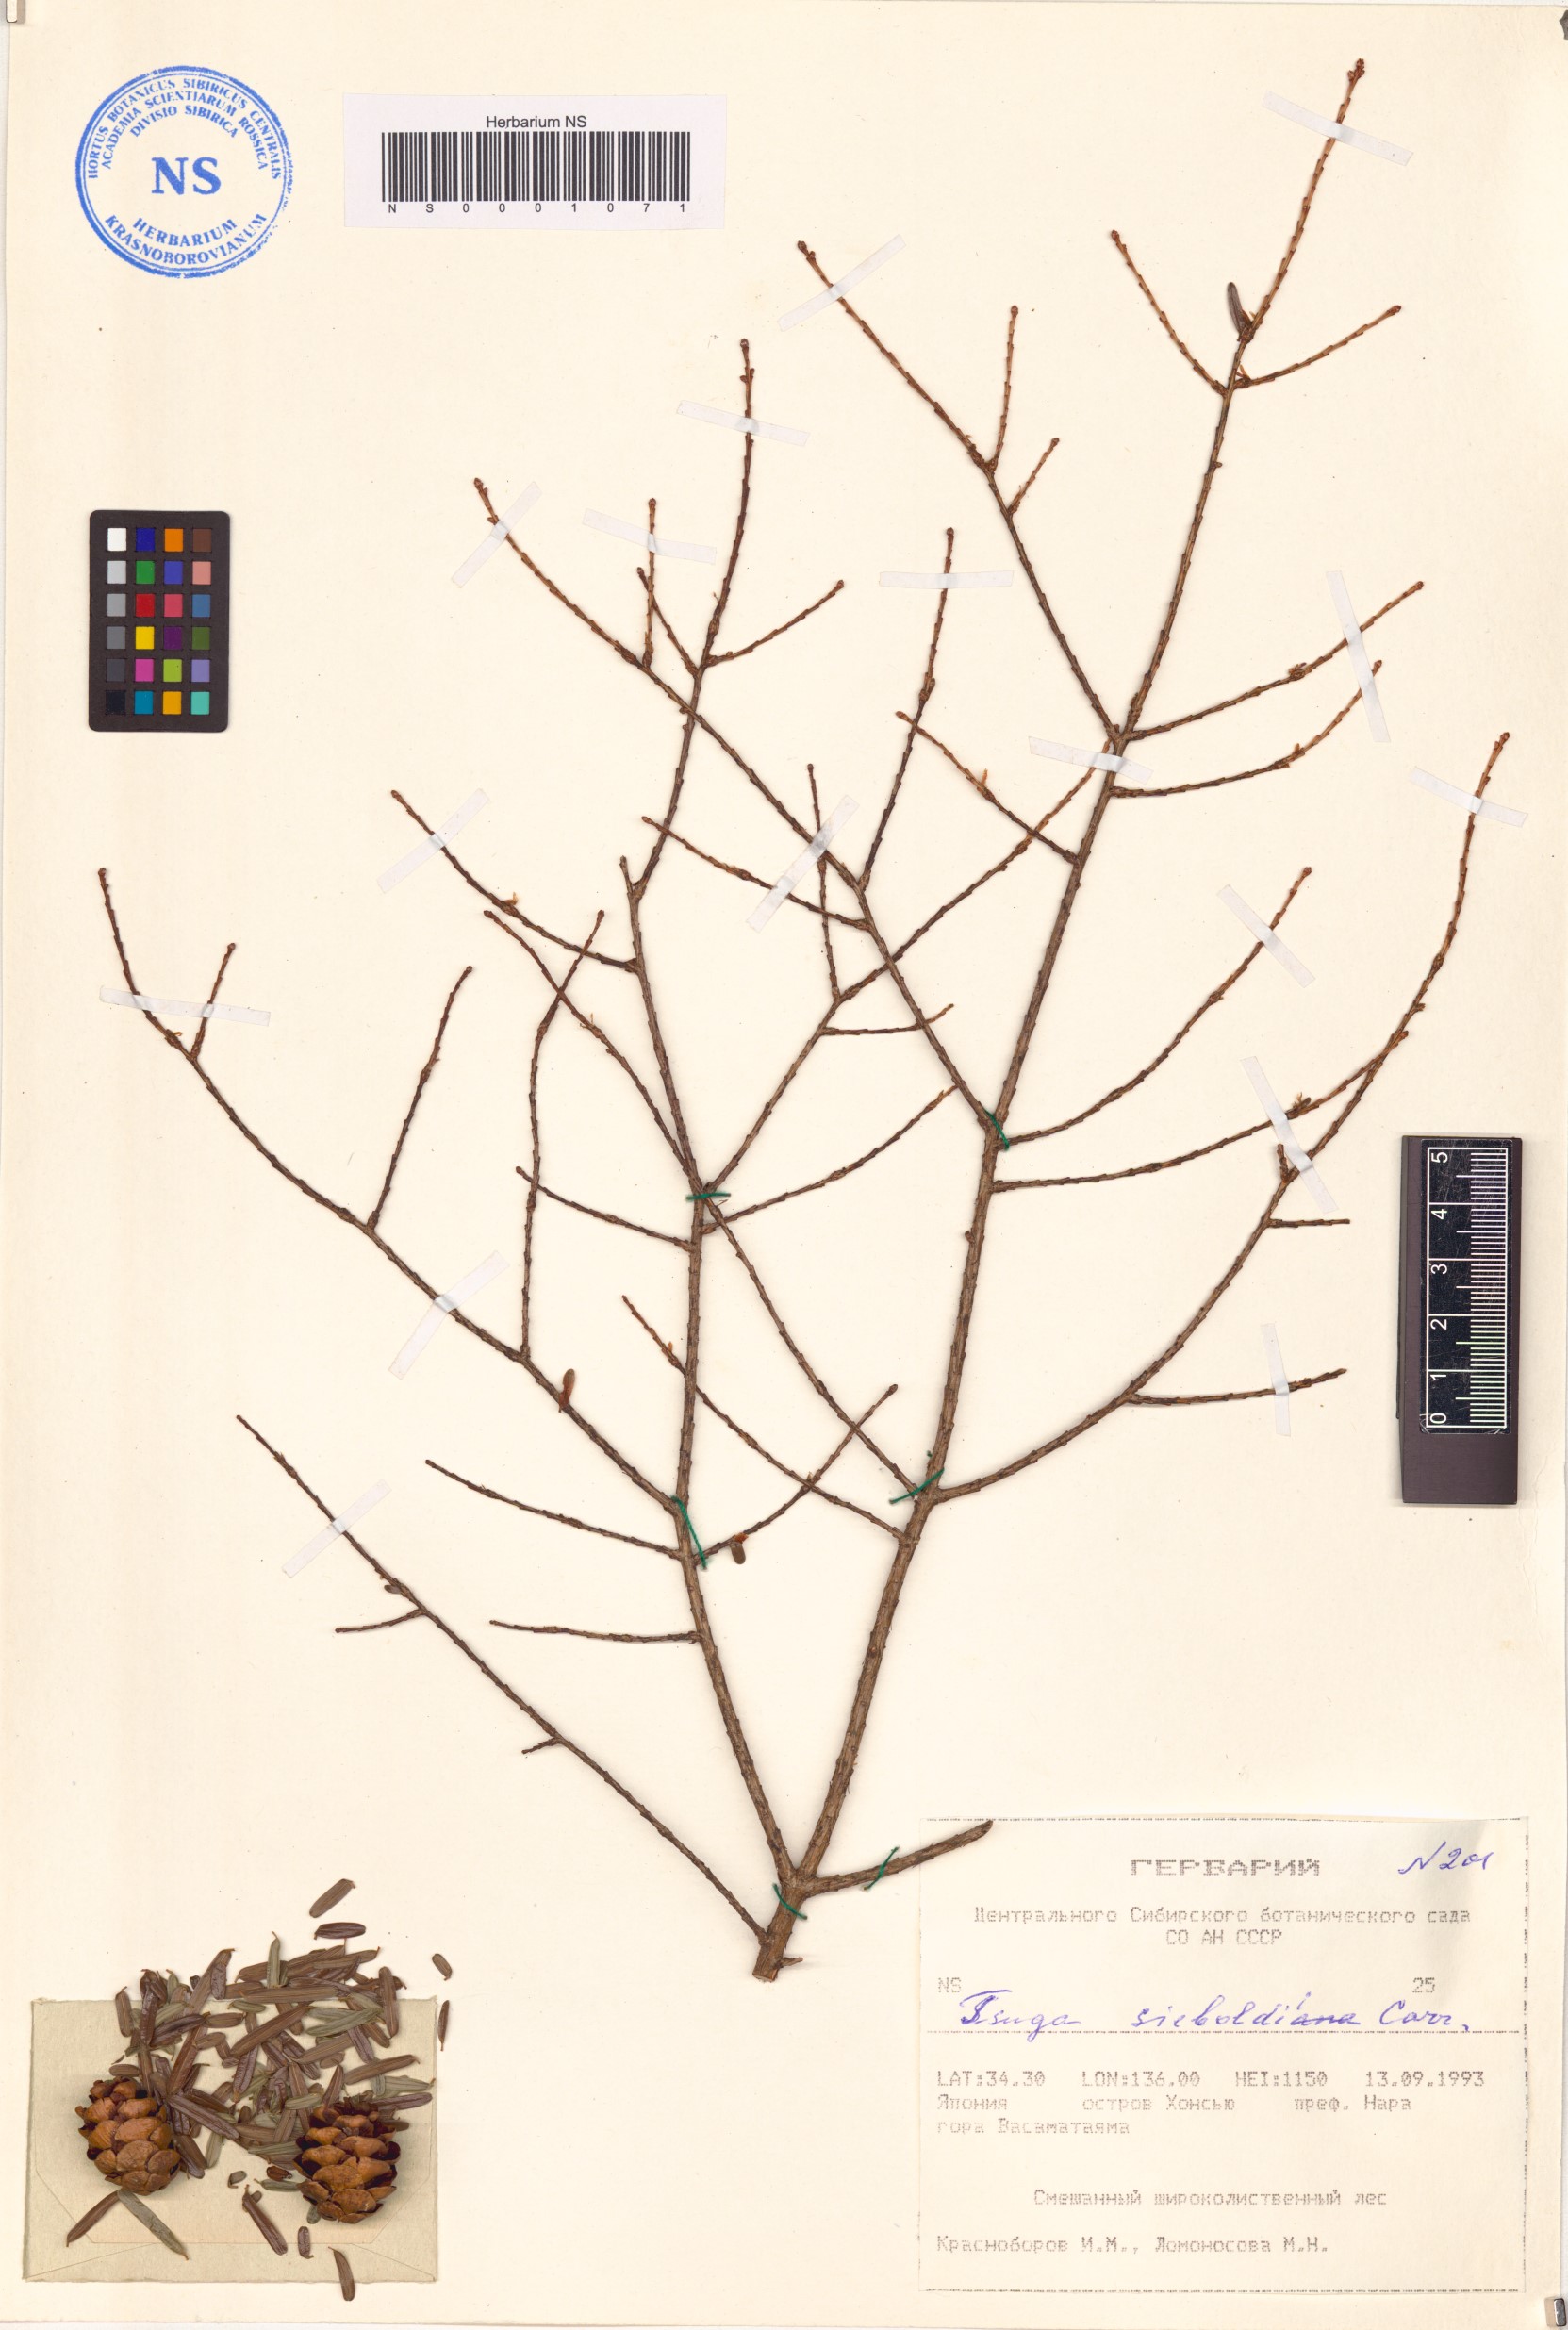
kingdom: Plantae
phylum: Tracheophyta
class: Pinopsida
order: Pinales
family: Pinaceae
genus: Tsuga
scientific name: Tsuga sieboldii
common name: Japanese hemlock
